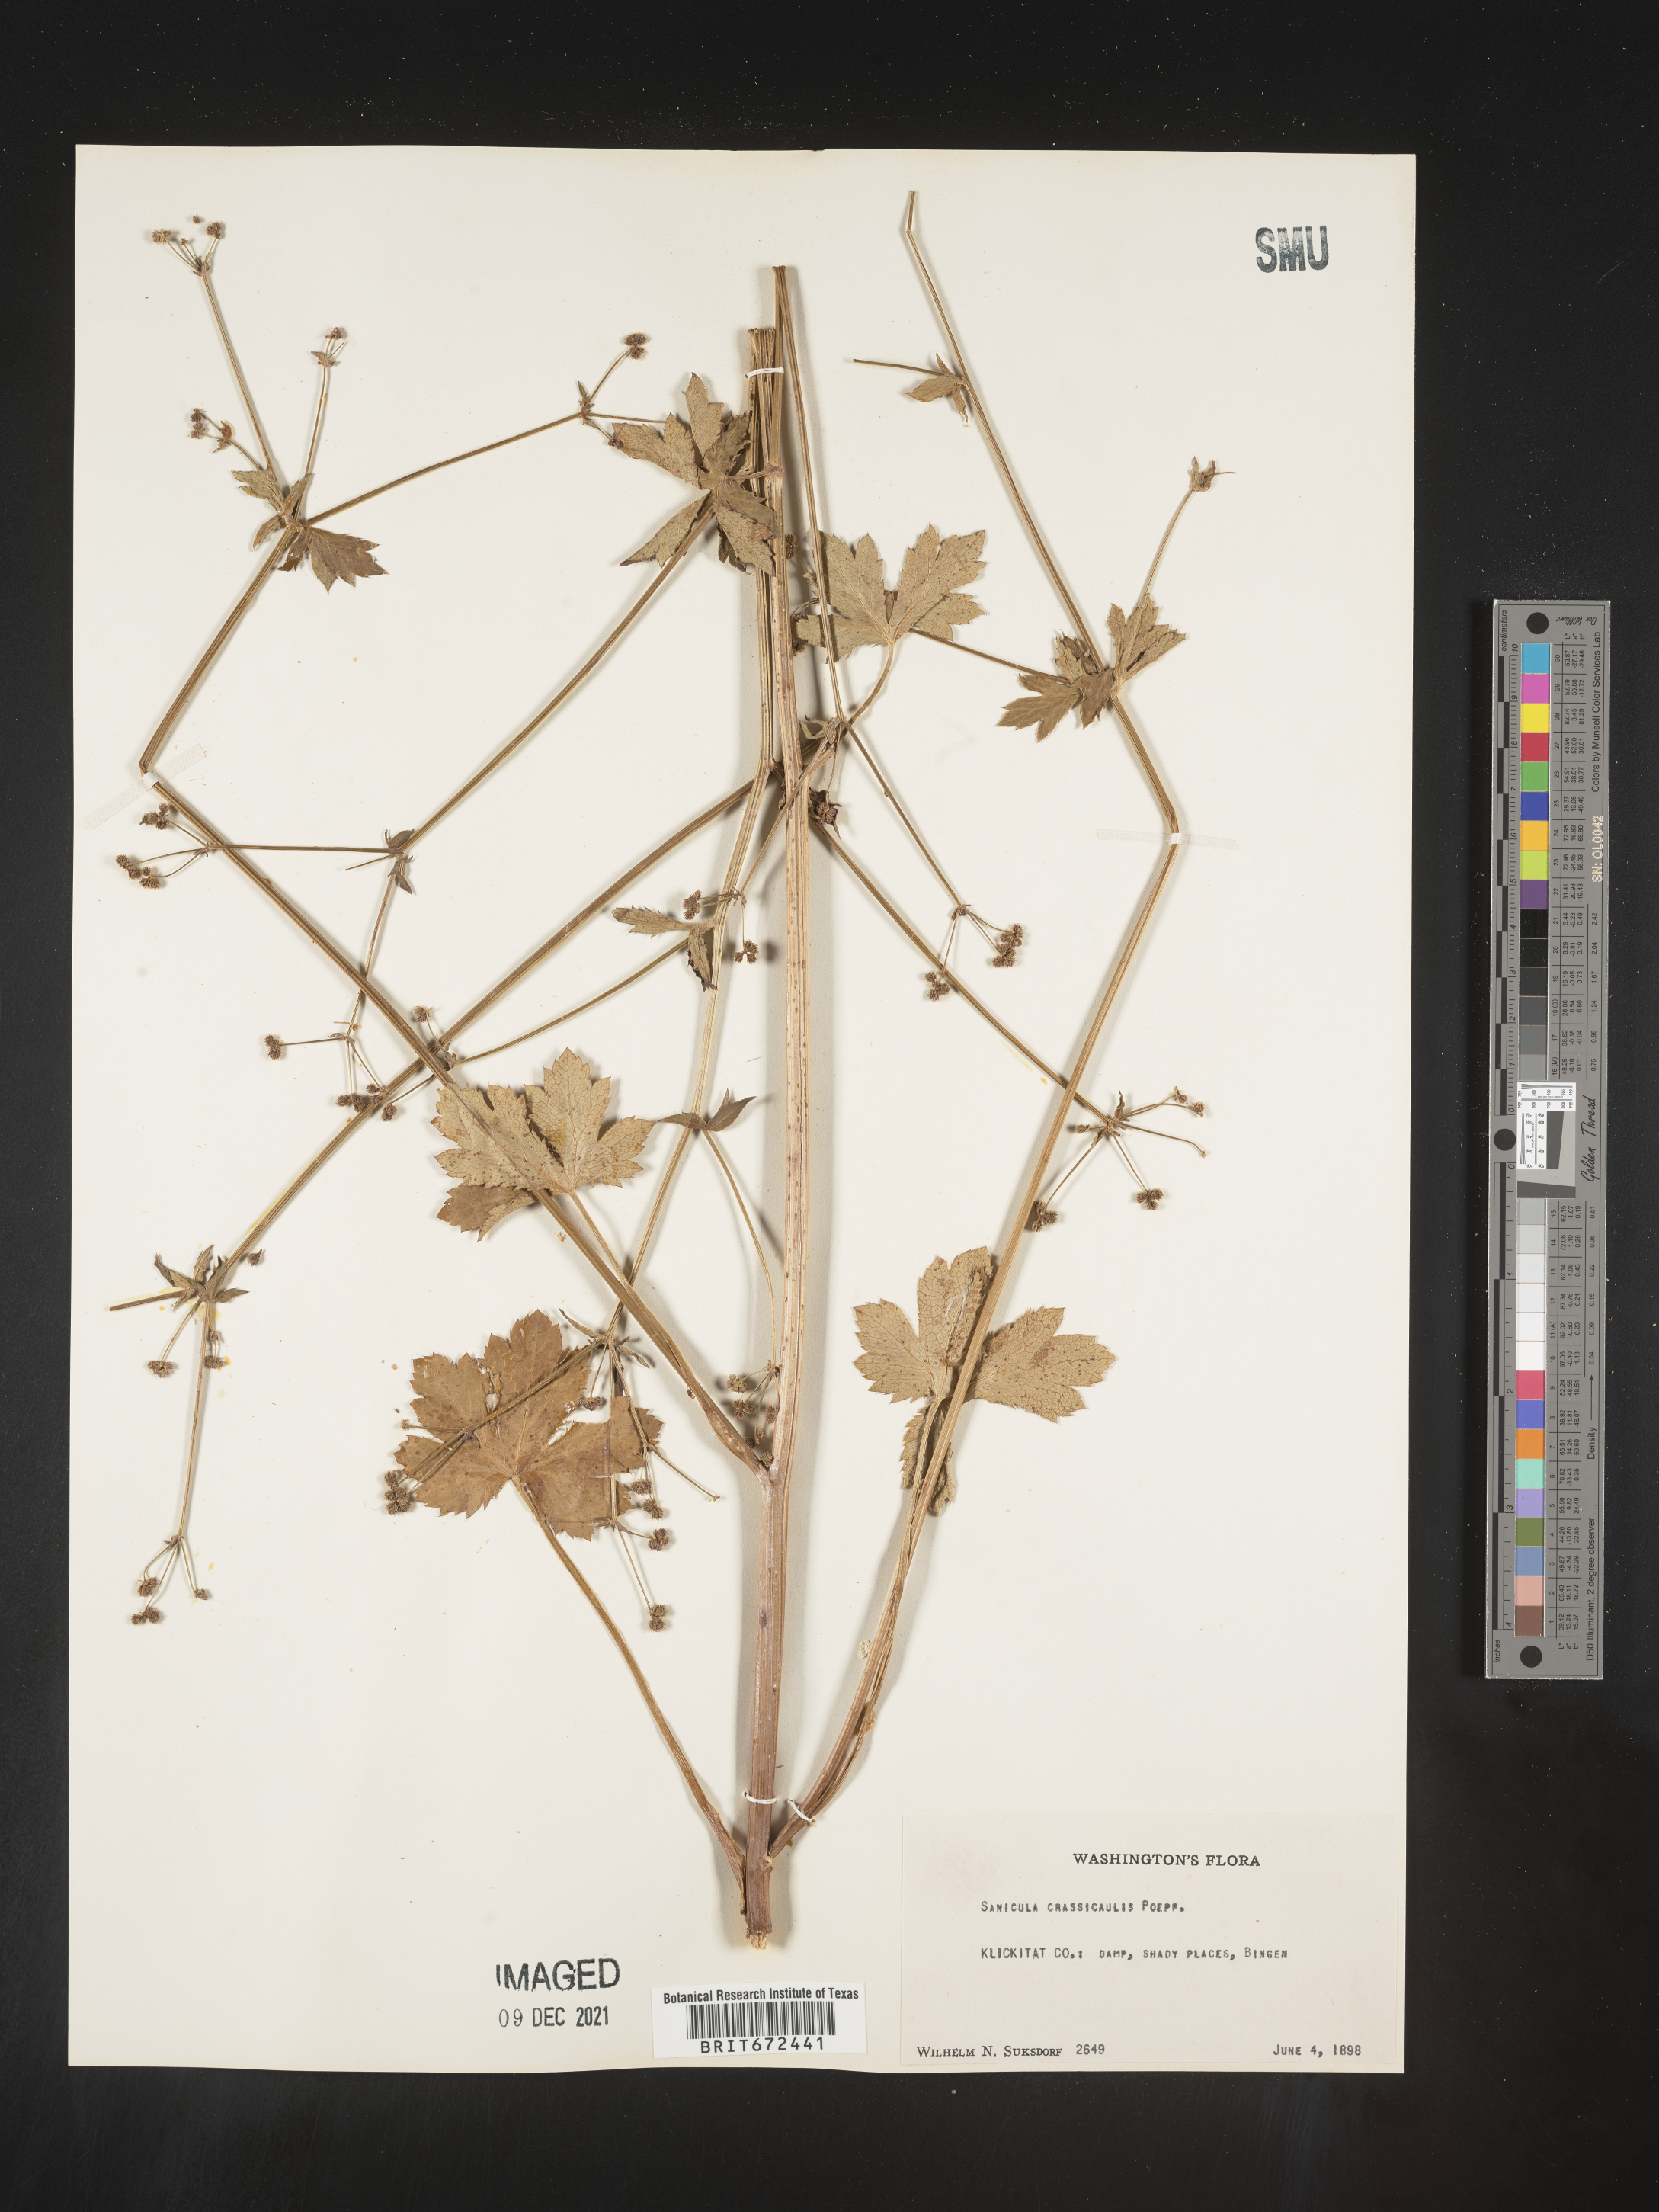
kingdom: Plantae
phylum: Tracheophyta
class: Magnoliopsida
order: Apiales
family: Apiaceae
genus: Sanicula
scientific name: Sanicula crassicaulis
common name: Western snakeroot
